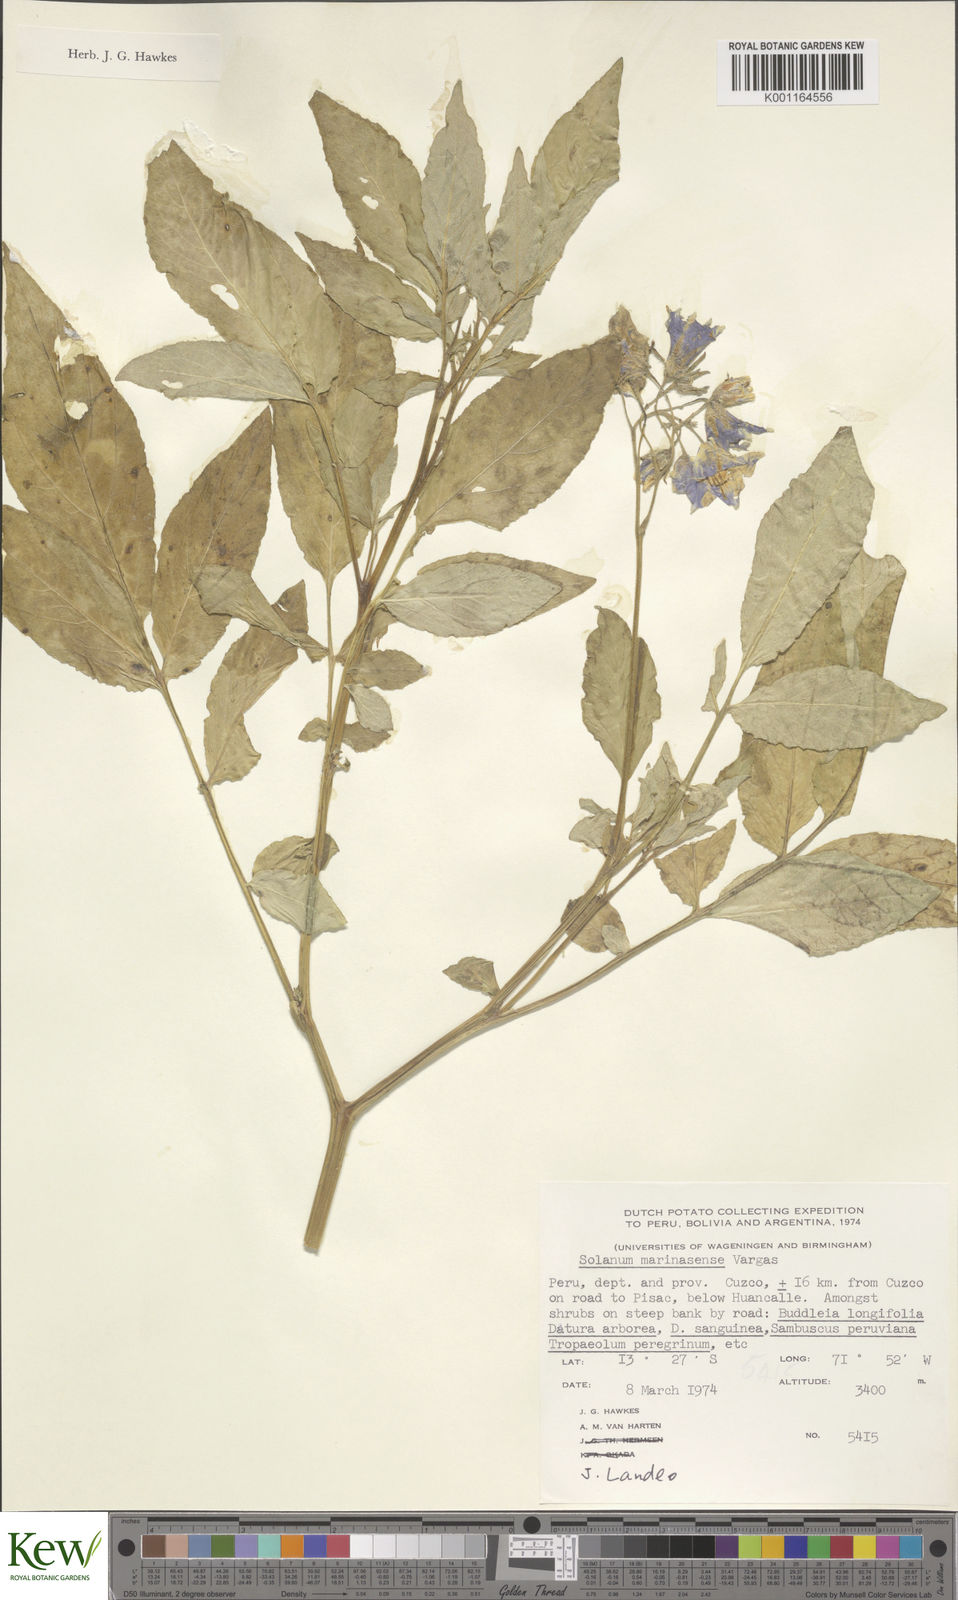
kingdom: Plantae
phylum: Tracheophyta
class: Magnoliopsida
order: Solanales
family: Solanaceae
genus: Solanum
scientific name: Solanum candolleanum
